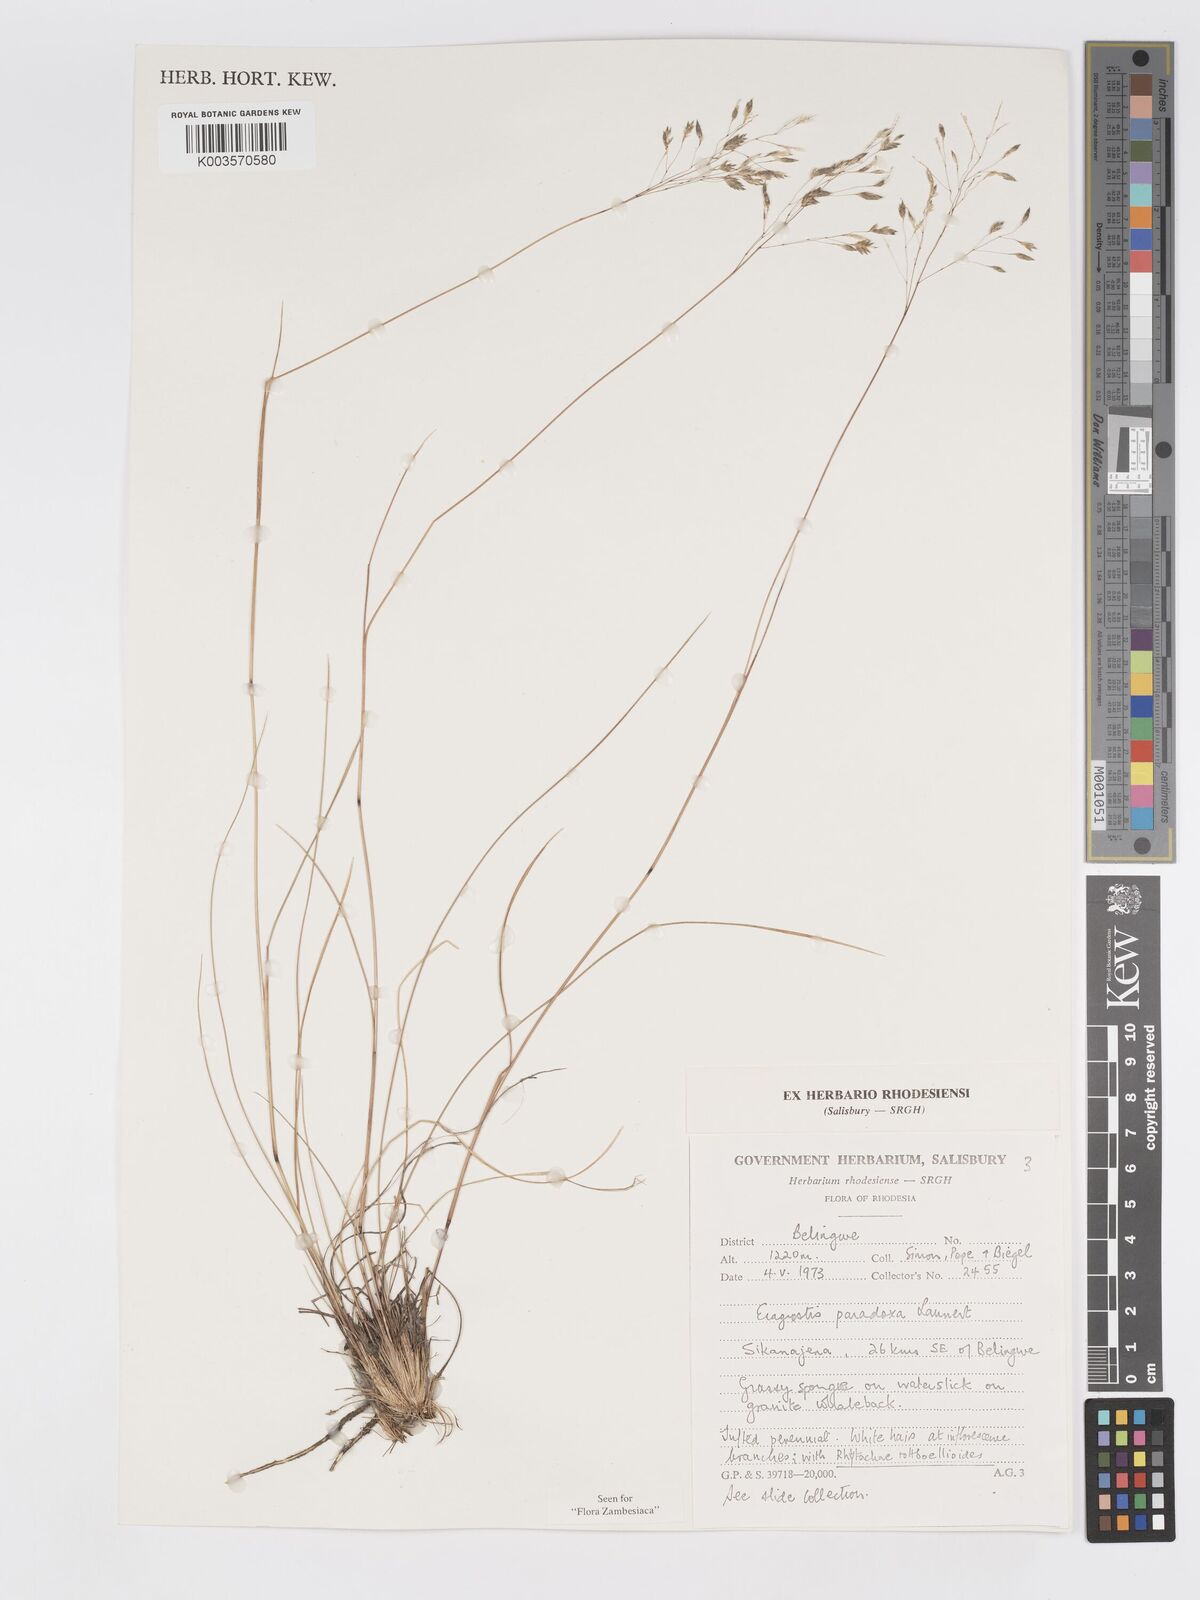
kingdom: Plantae
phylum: Tracheophyta
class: Liliopsida
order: Poales
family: Poaceae
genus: Eragrostis
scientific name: Eragrostis paradoxa
